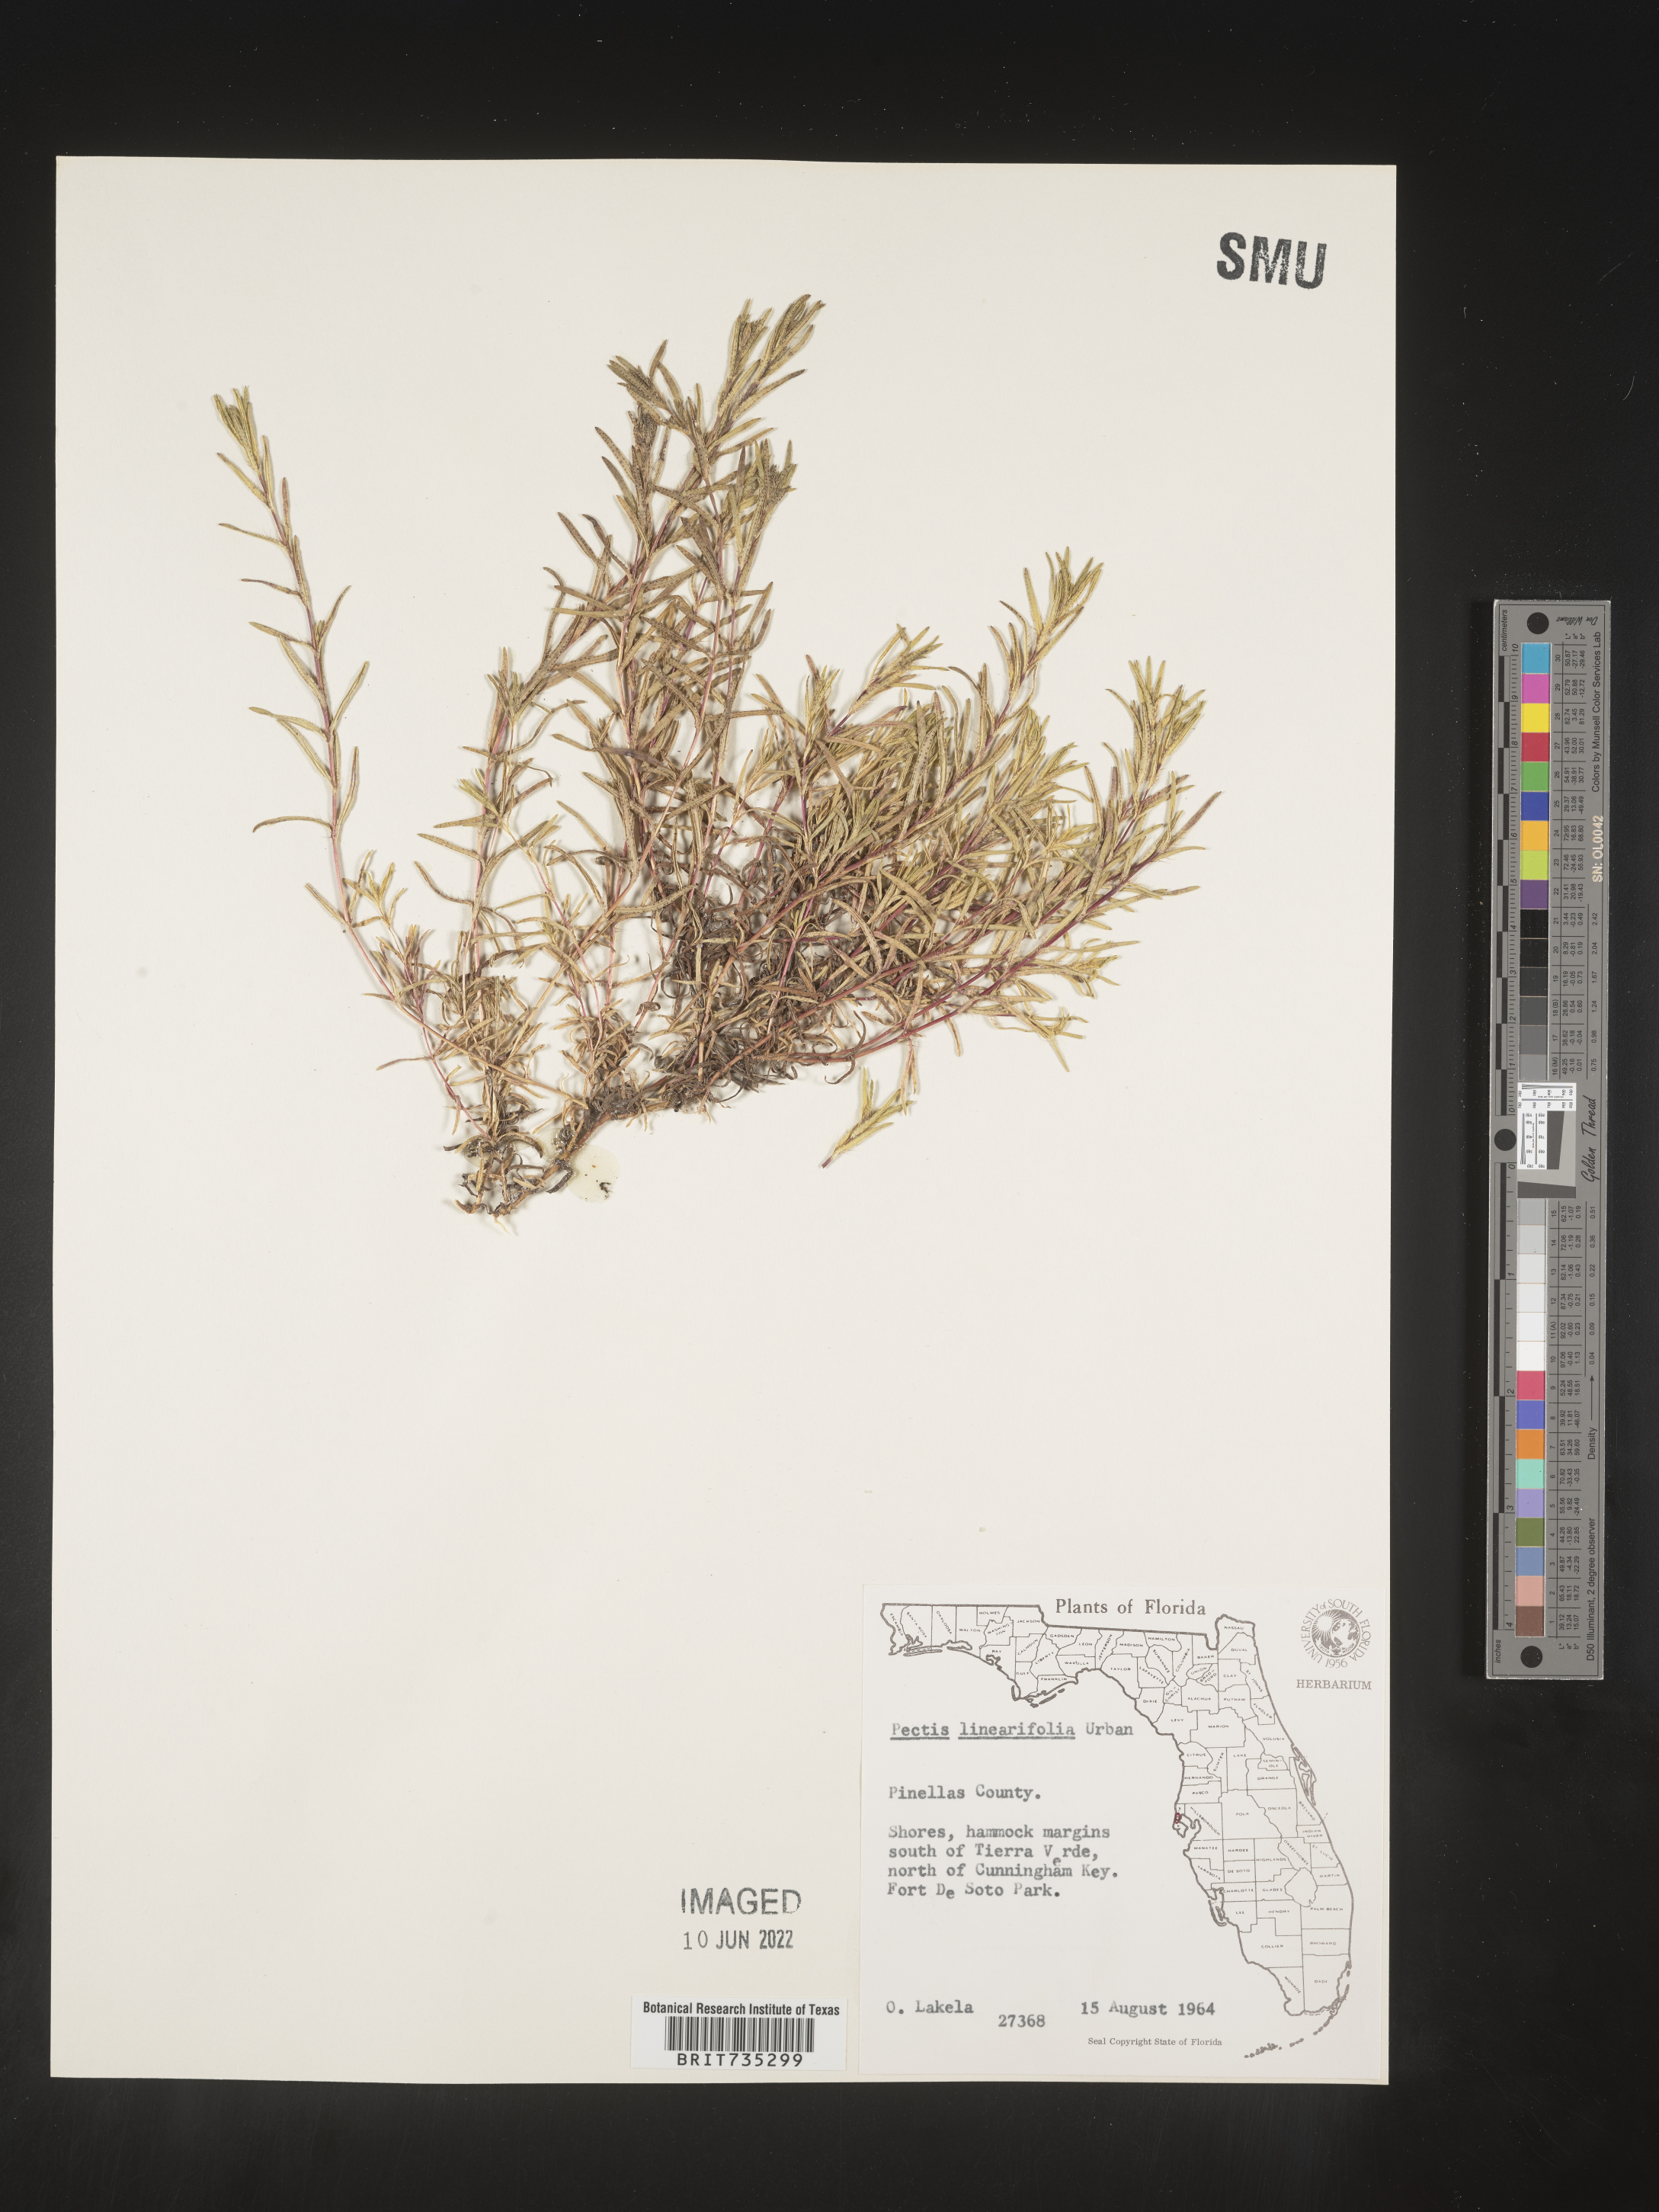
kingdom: Plantae
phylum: Tracheophyta
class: Magnoliopsida
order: Asterales
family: Asteraceae
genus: Pectis
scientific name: Pectis linearifolia
